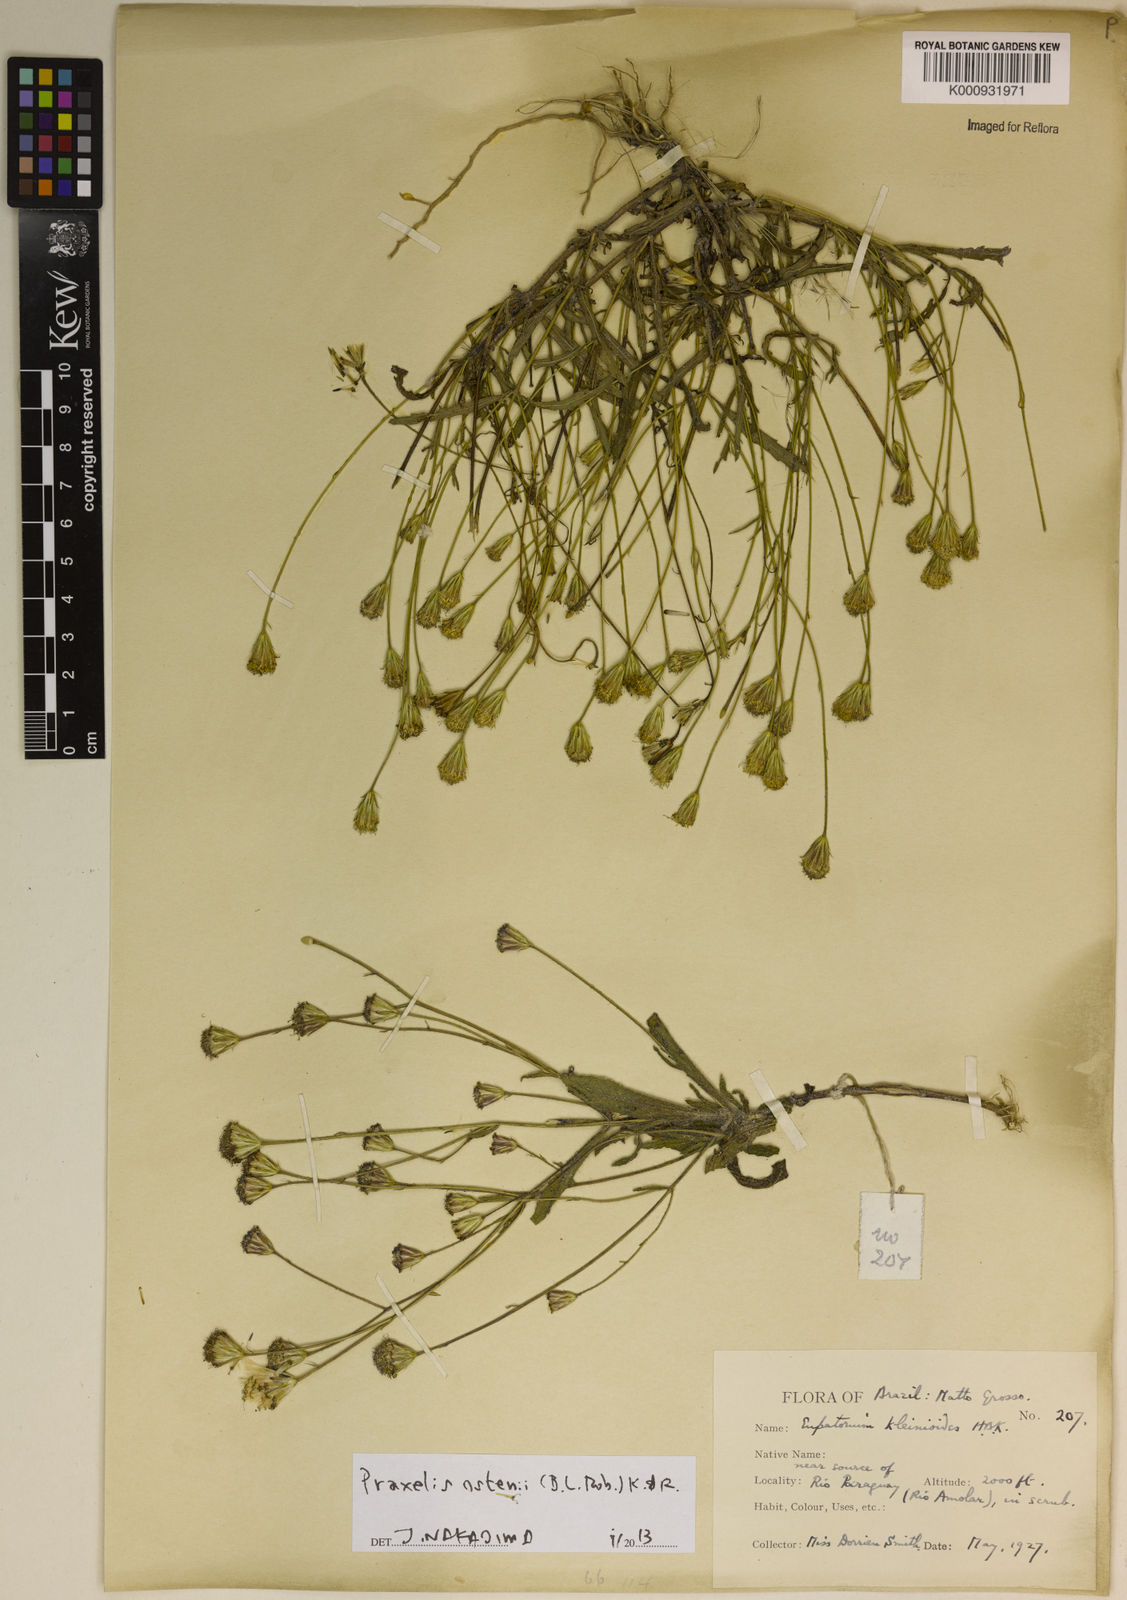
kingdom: Plantae
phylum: Tracheophyta
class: Magnoliopsida
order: Asterales
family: Asteraceae
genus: Praxelis
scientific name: Praxelis ostenii
